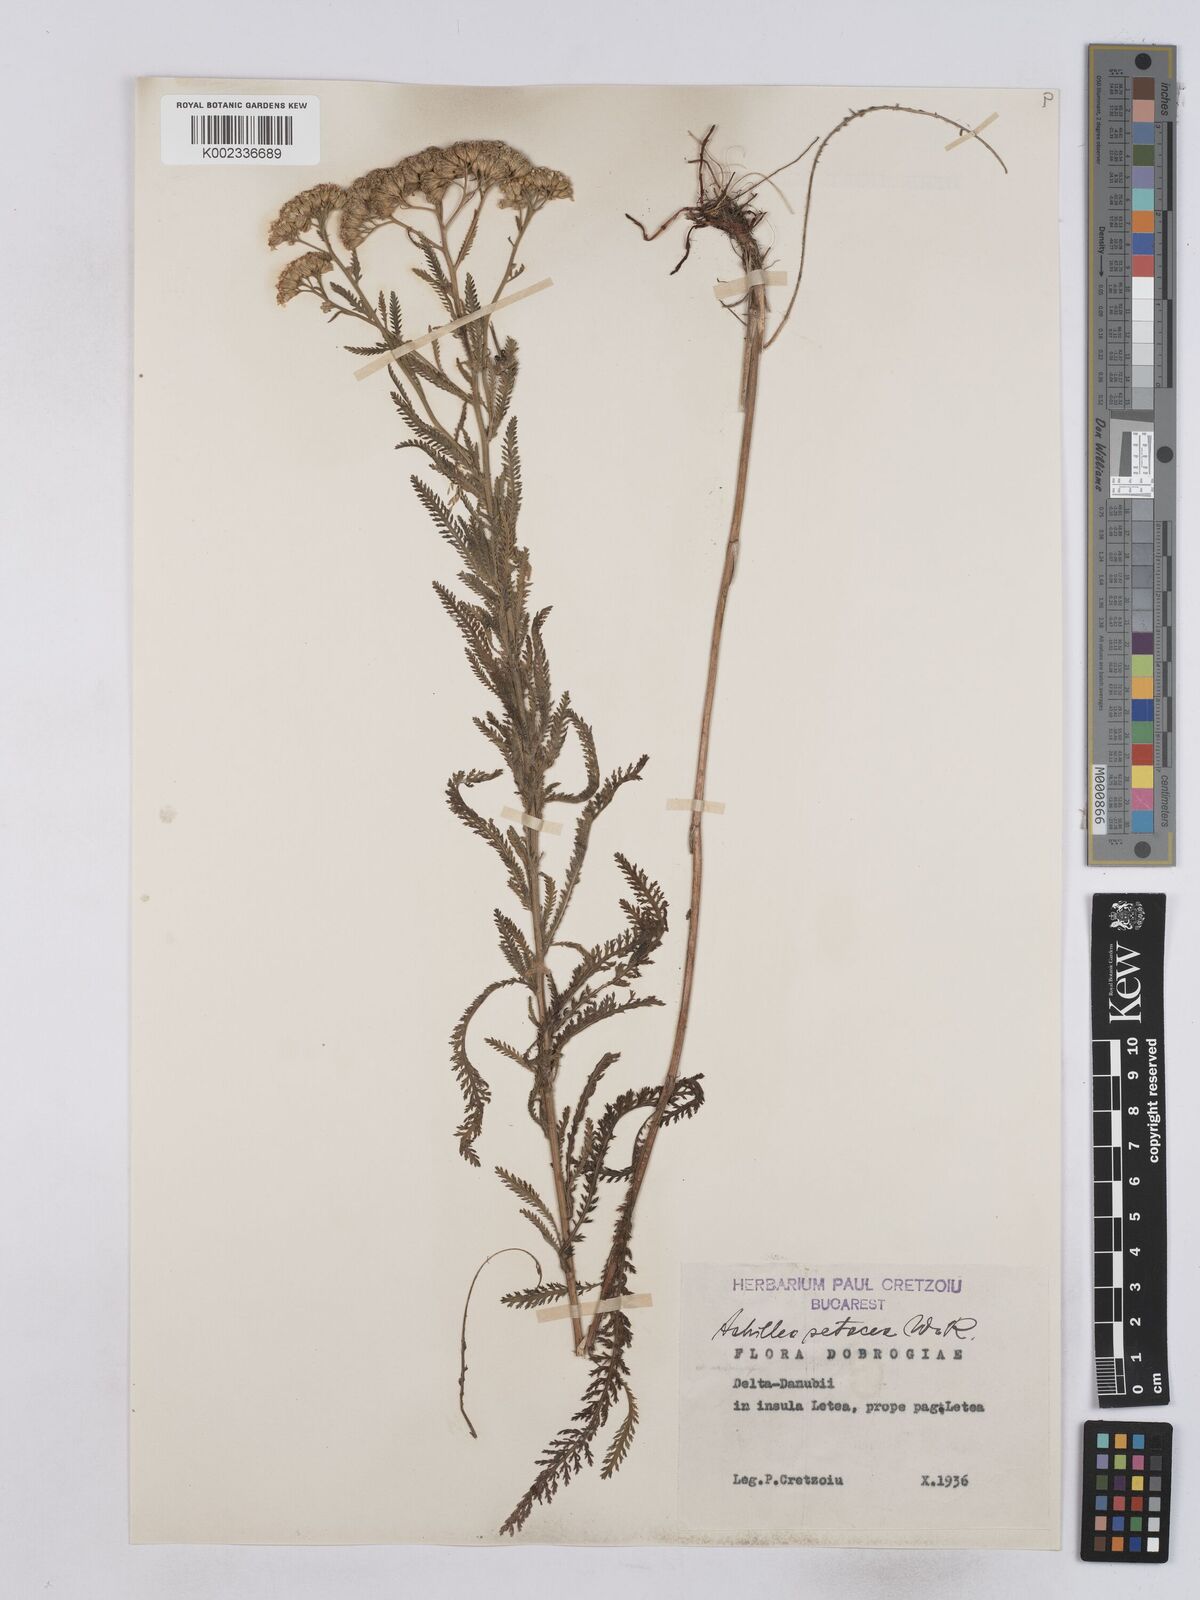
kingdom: Plantae
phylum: Tracheophyta
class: Magnoliopsida
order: Asterales
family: Asteraceae
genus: Achillea
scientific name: Achillea setacea
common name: Bristly yarrow
